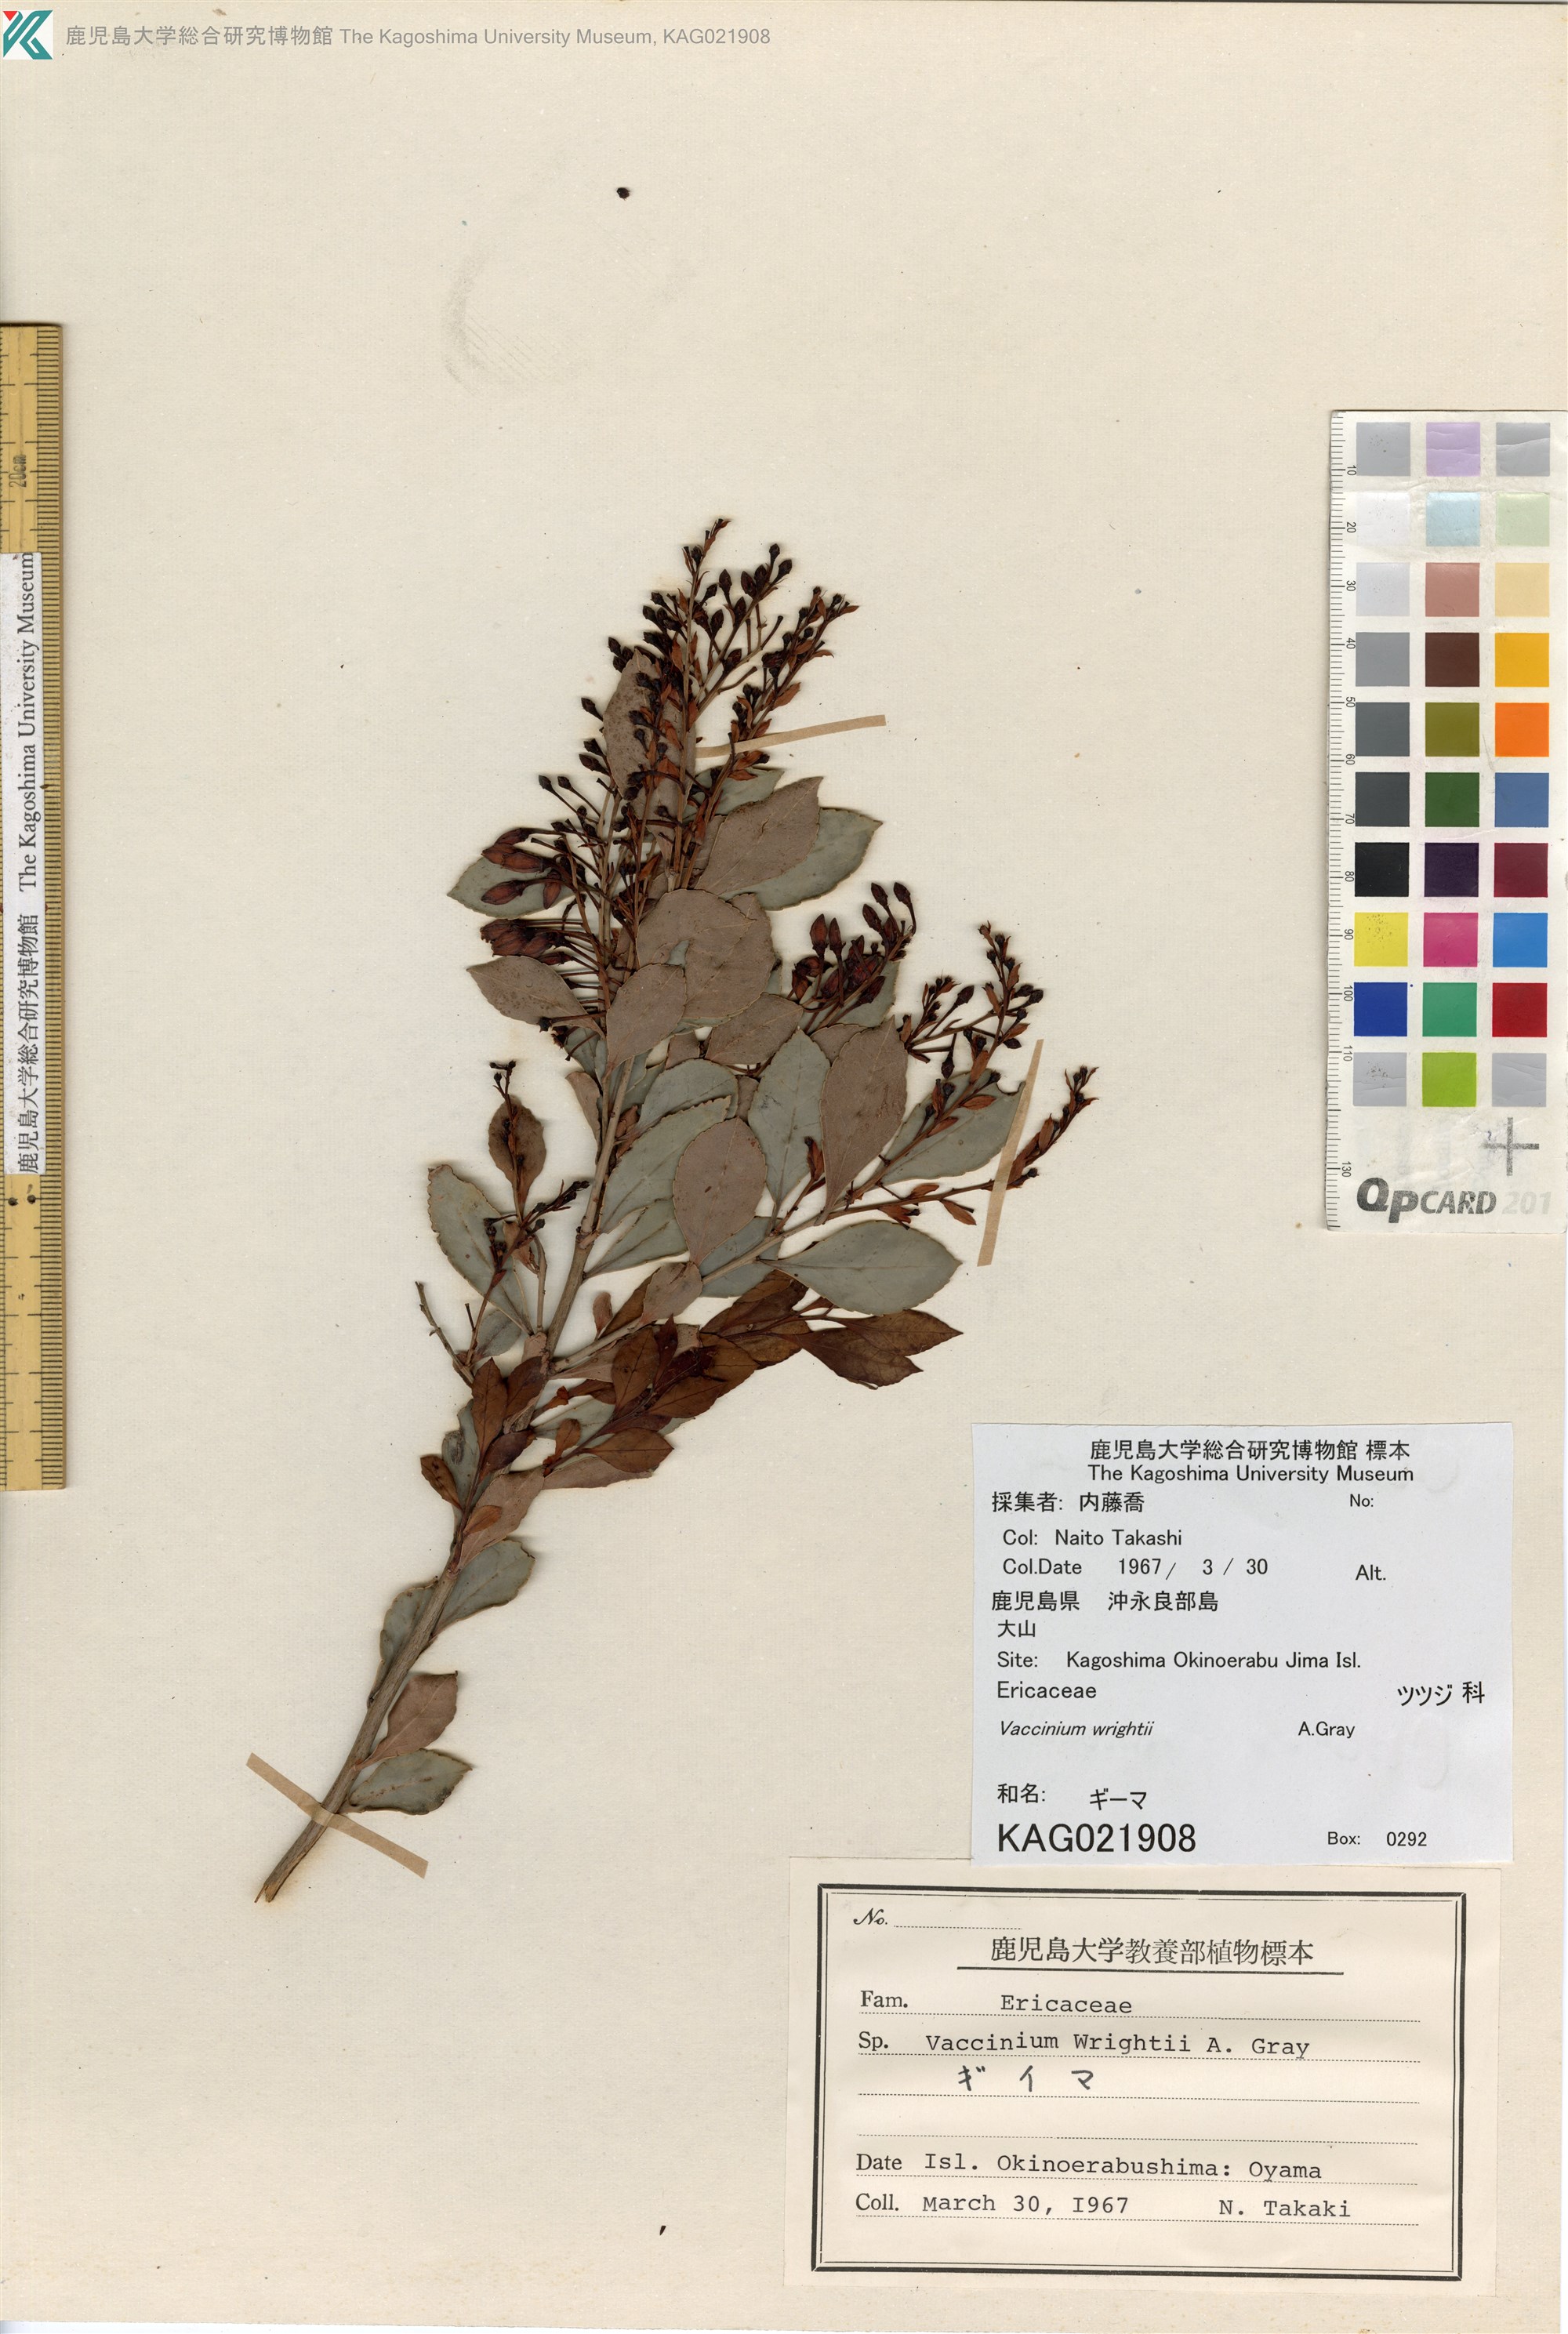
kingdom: Plantae
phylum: Tracheophyta
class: Magnoliopsida
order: Ericales
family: Ericaceae
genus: Vaccinium
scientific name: Vaccinium wrightii
